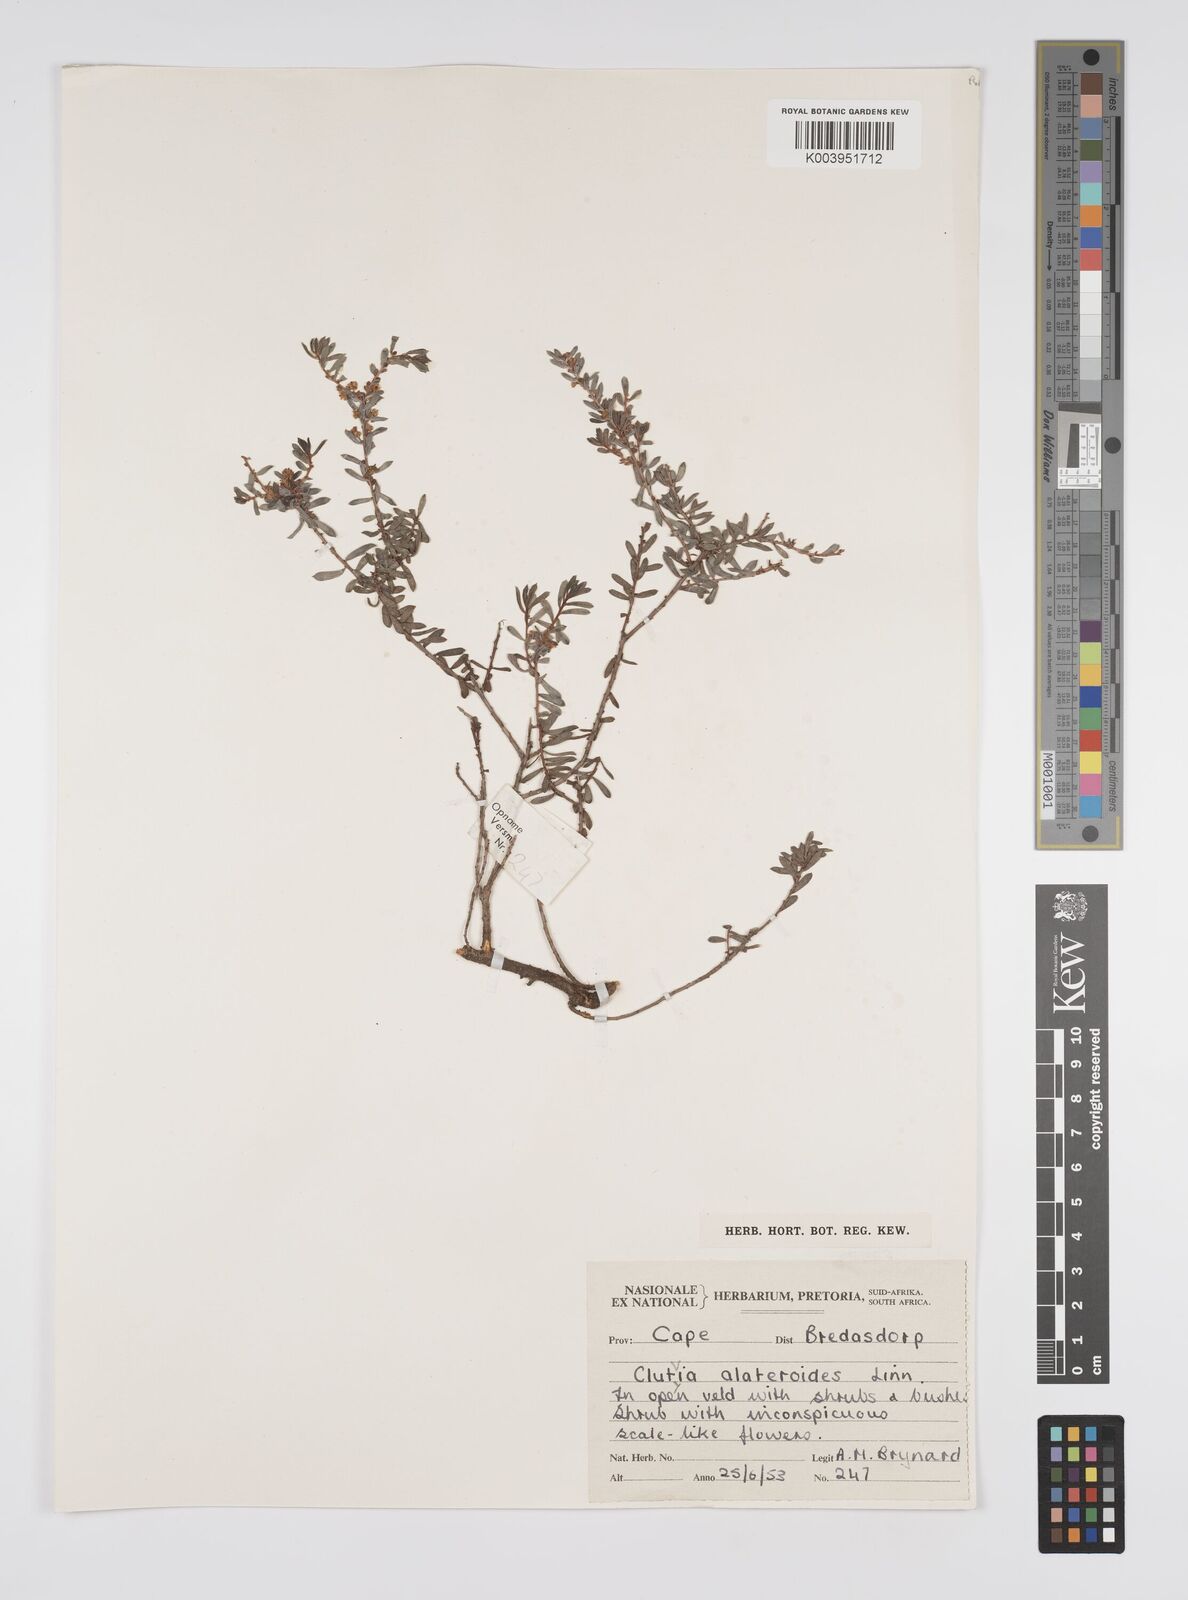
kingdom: Plantae
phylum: Tracheophyta
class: Magnoliopsida
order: Malpighiales
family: Peraceae
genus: Clutia
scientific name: Clutia alaternoides
